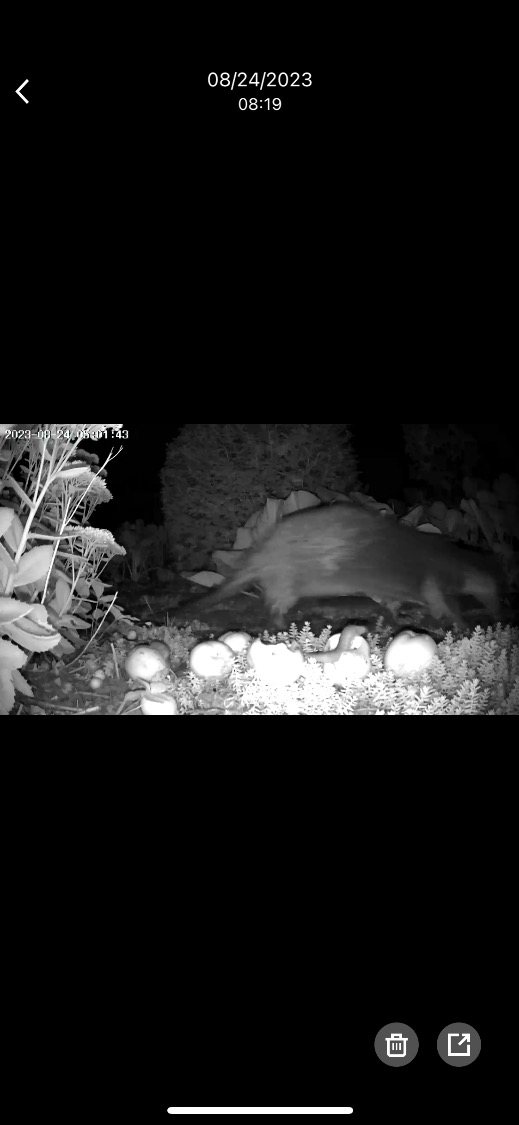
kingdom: Animalia
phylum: Chordata
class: Mammalia
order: Carnivora
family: Mustelidae
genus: Lutra
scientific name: Lutra lutra
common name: Odder
